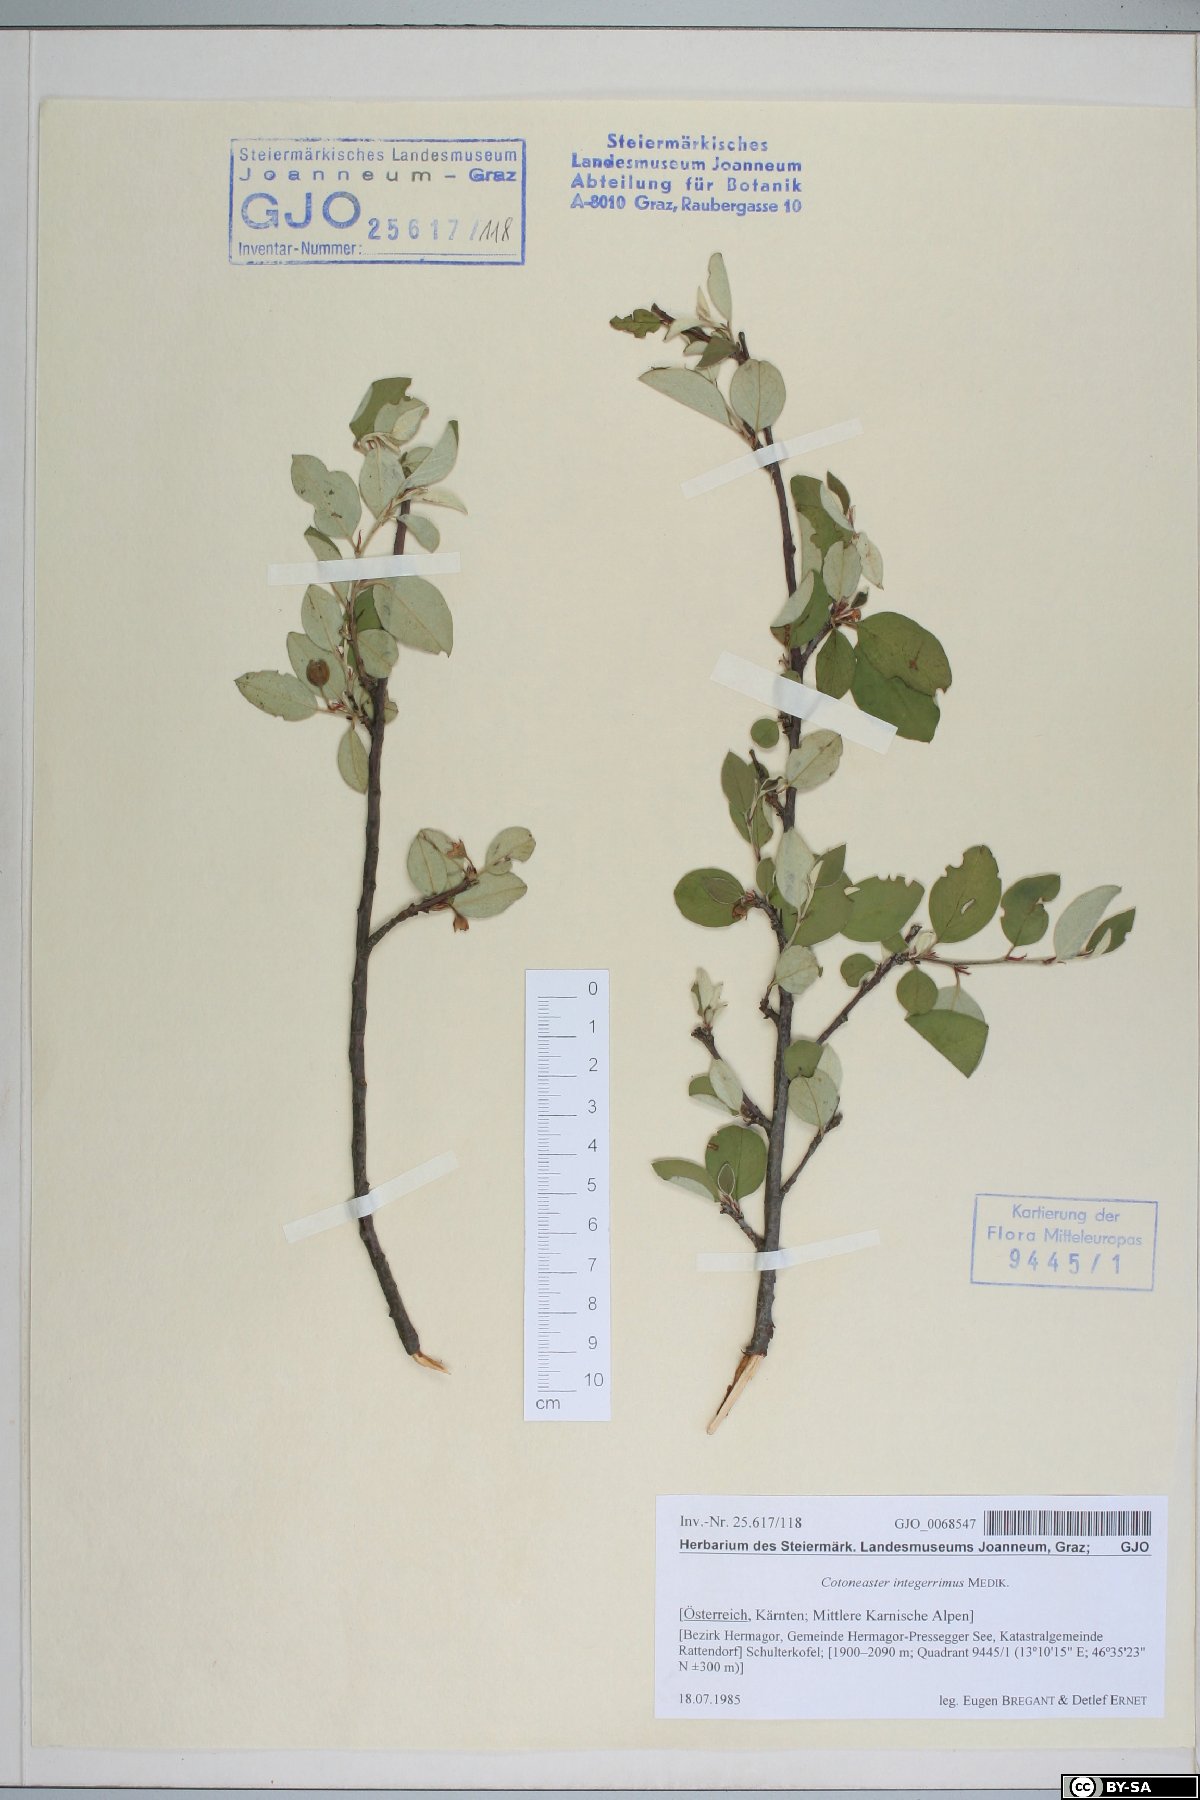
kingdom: Plantae
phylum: Tracheophyta
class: Magnoliopsida
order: Rosales
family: Rosaceae
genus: Cotoneaster
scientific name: Cotoneaster integerrimus
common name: Wild cotoneaster
